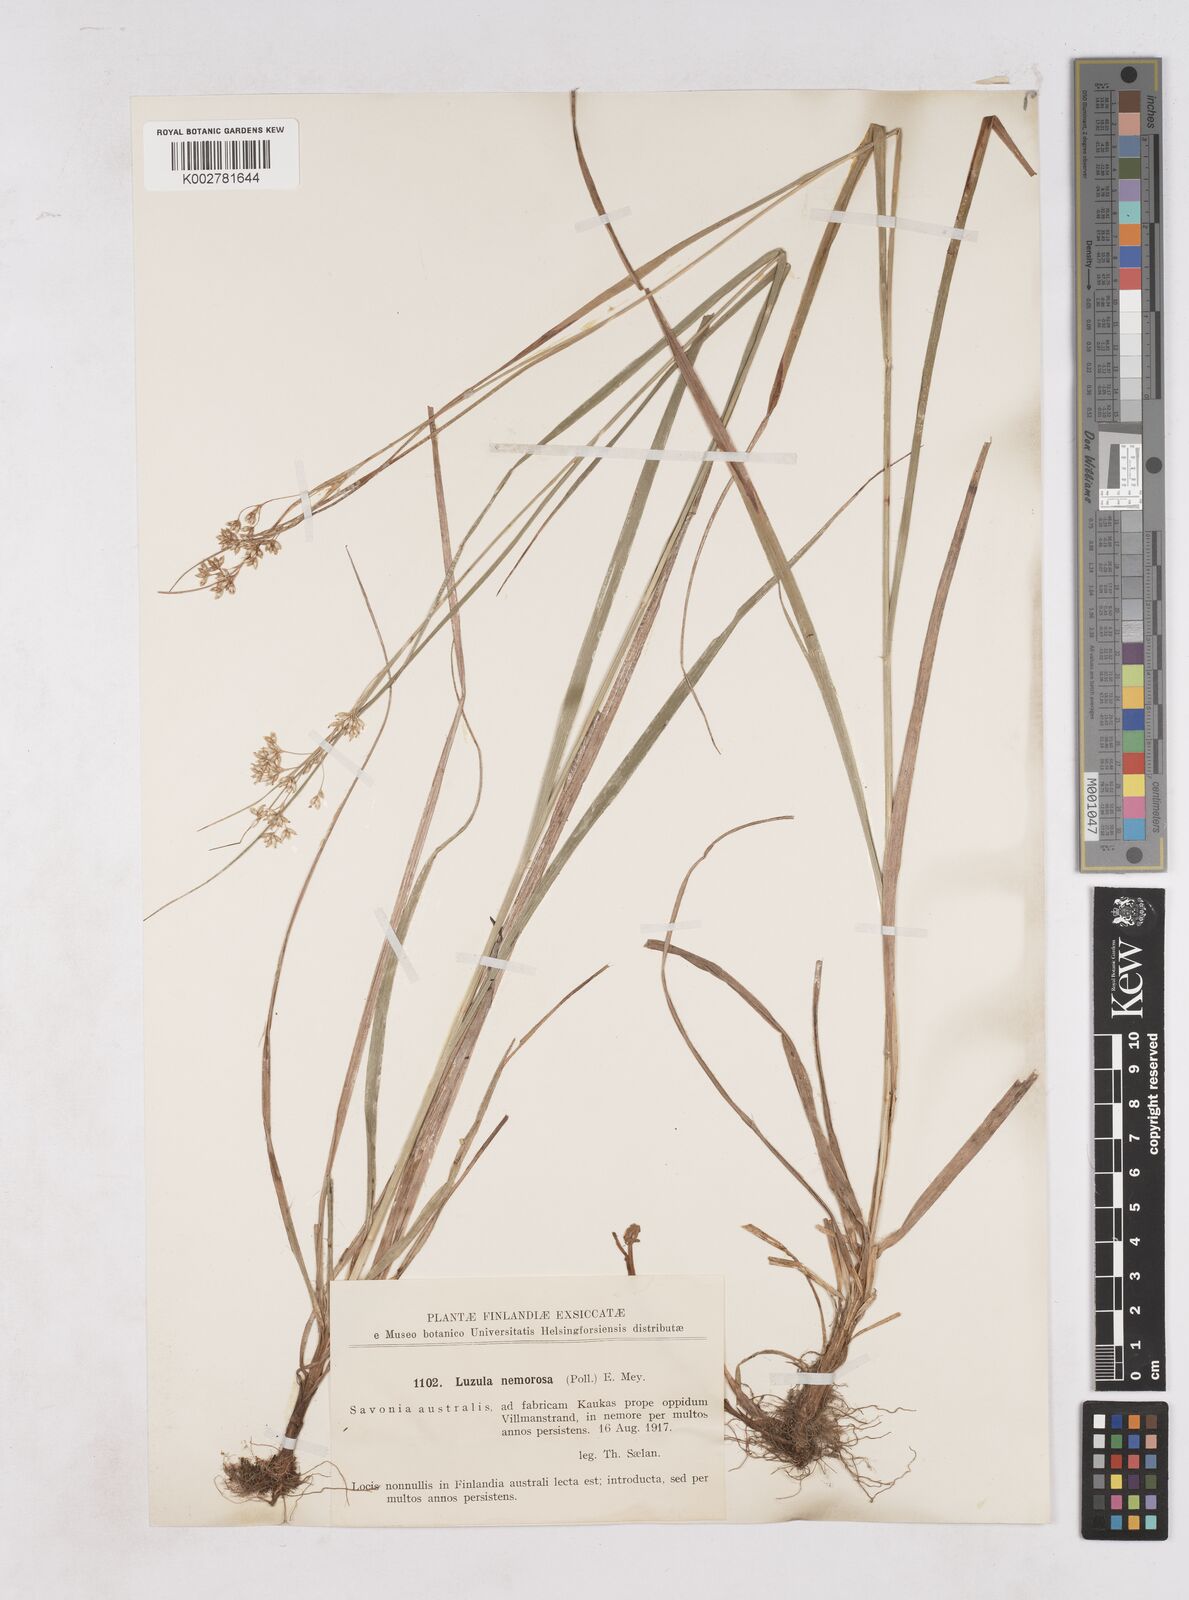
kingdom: Plantae
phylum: Tracheophyta
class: Liliopsida
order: Poales
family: Juncaceae
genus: Luzula
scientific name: Luzula luzuloides
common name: White wood-rush
